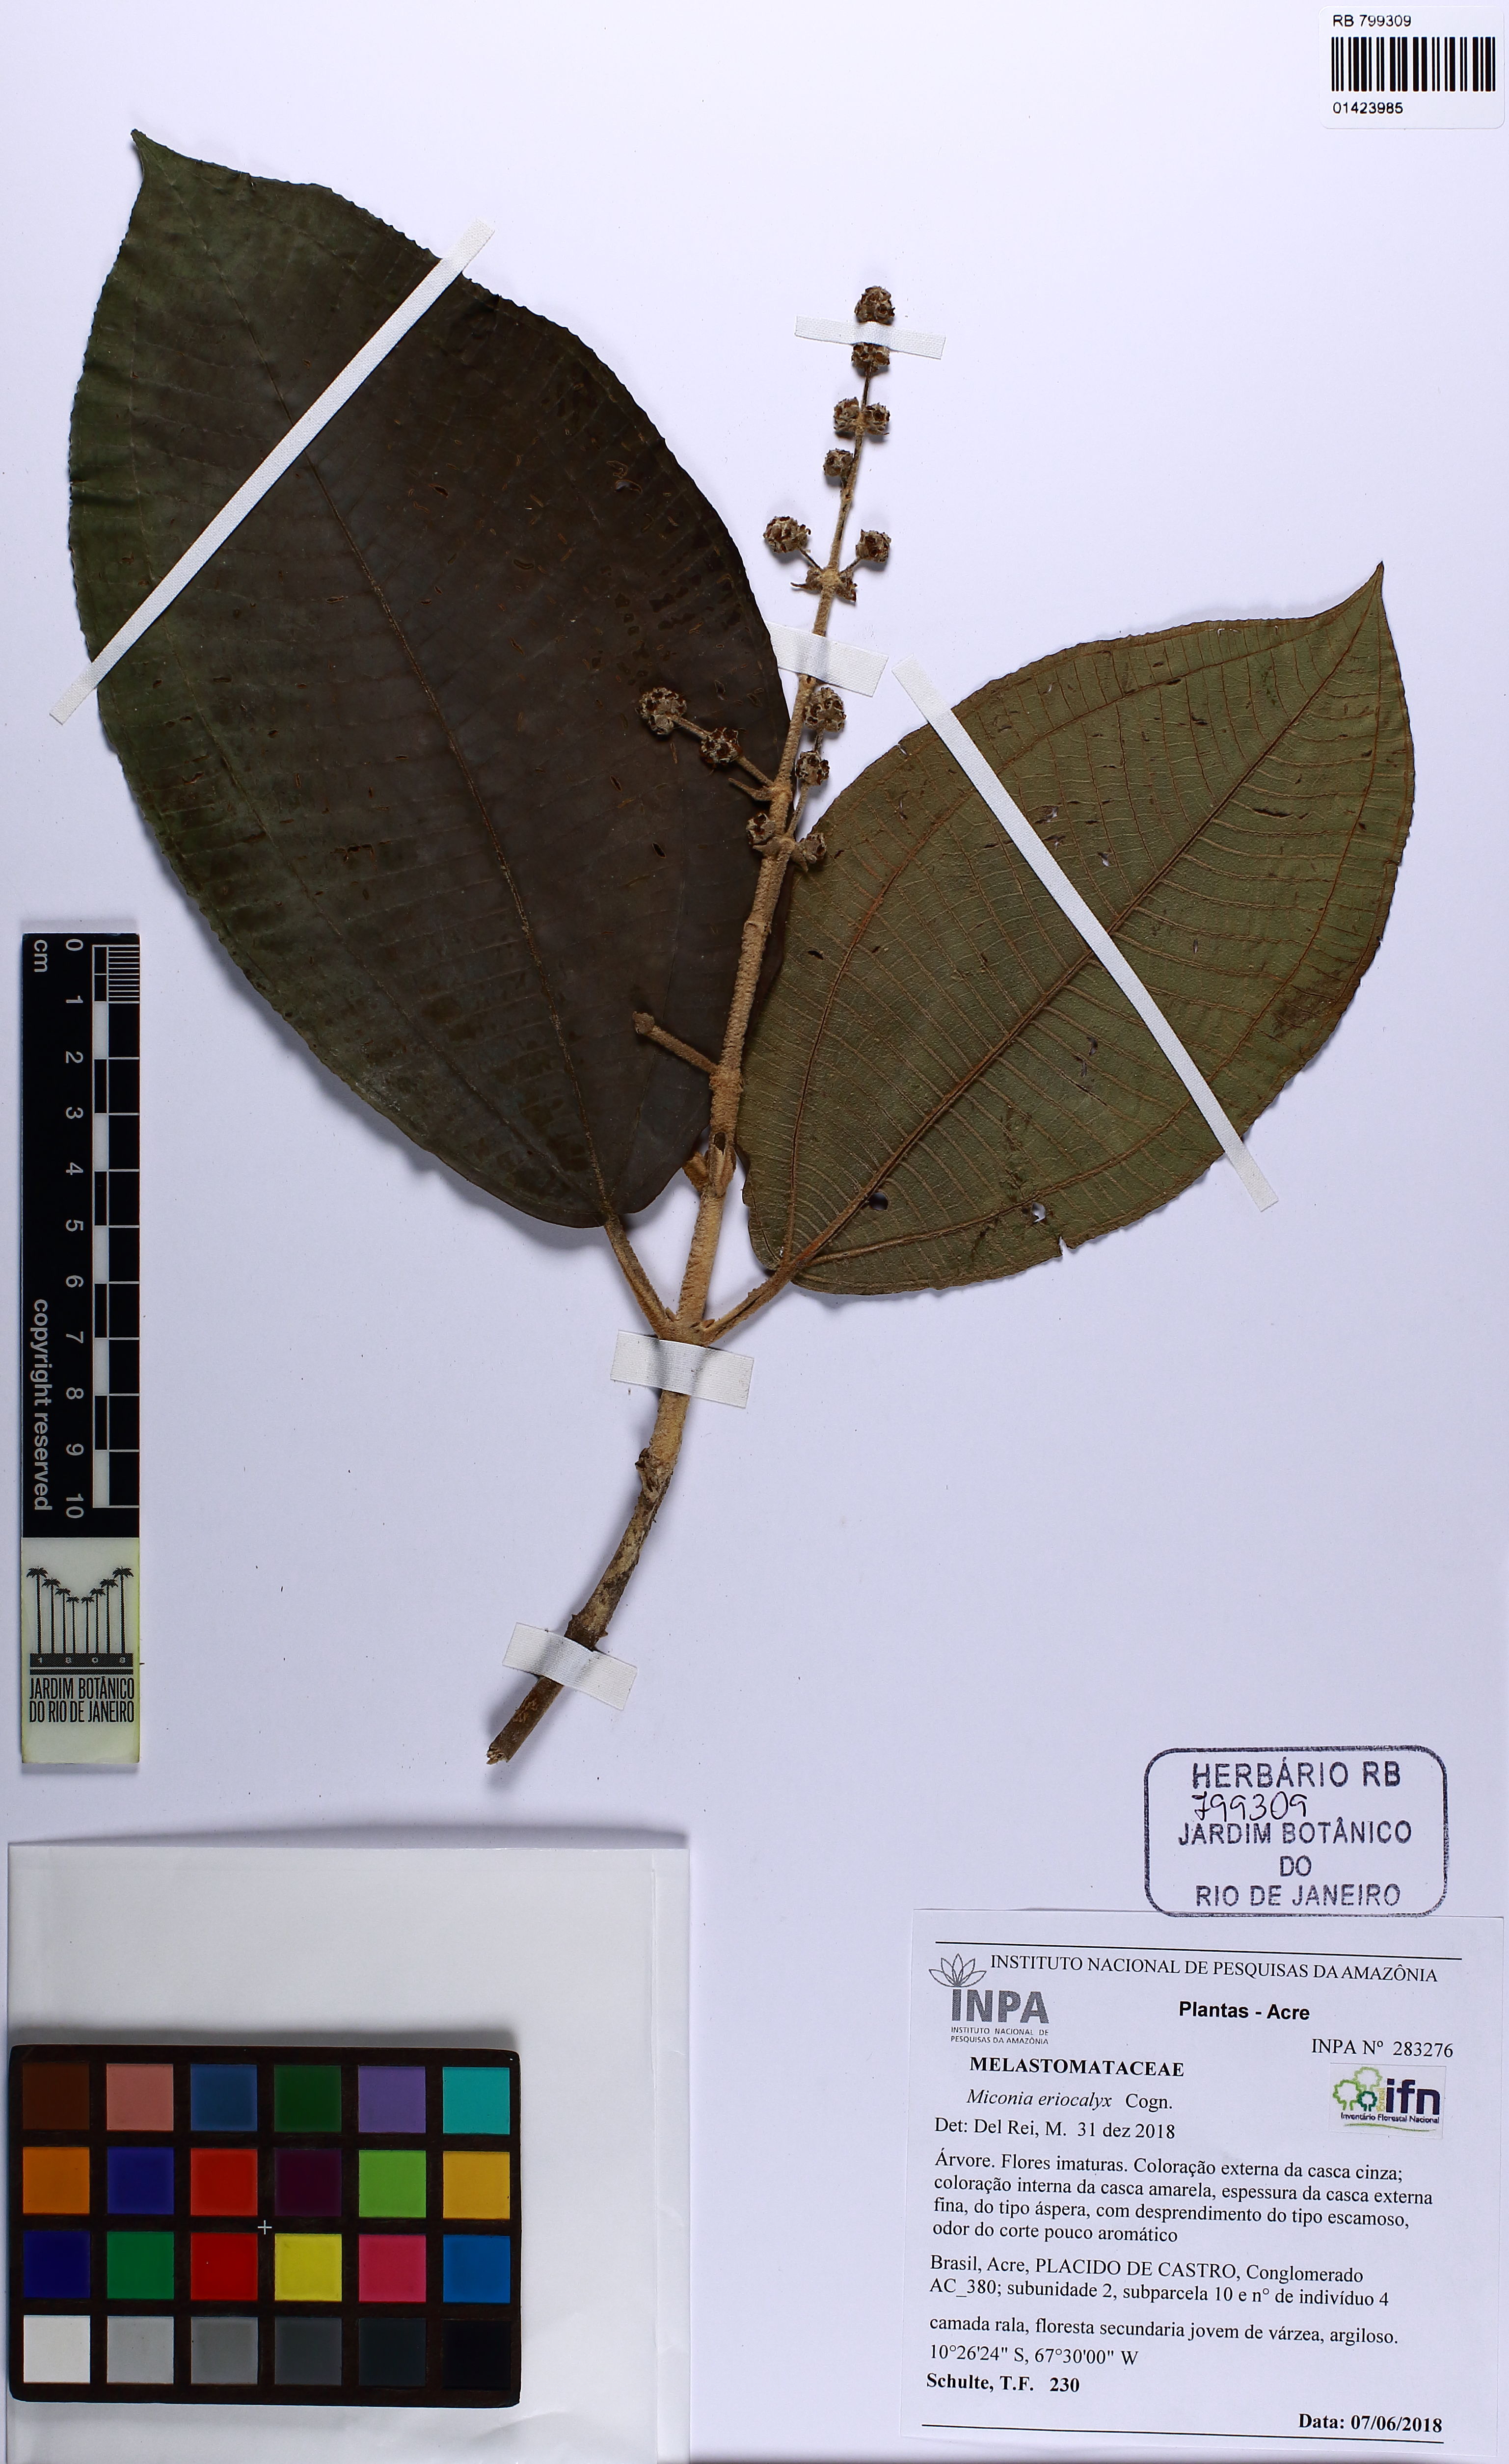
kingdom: Plantae
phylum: Tracheophyta
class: Magnoliopsida
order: Myrtales
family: Melastomataceae
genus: Miconia
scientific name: Miconia eriocalyx
